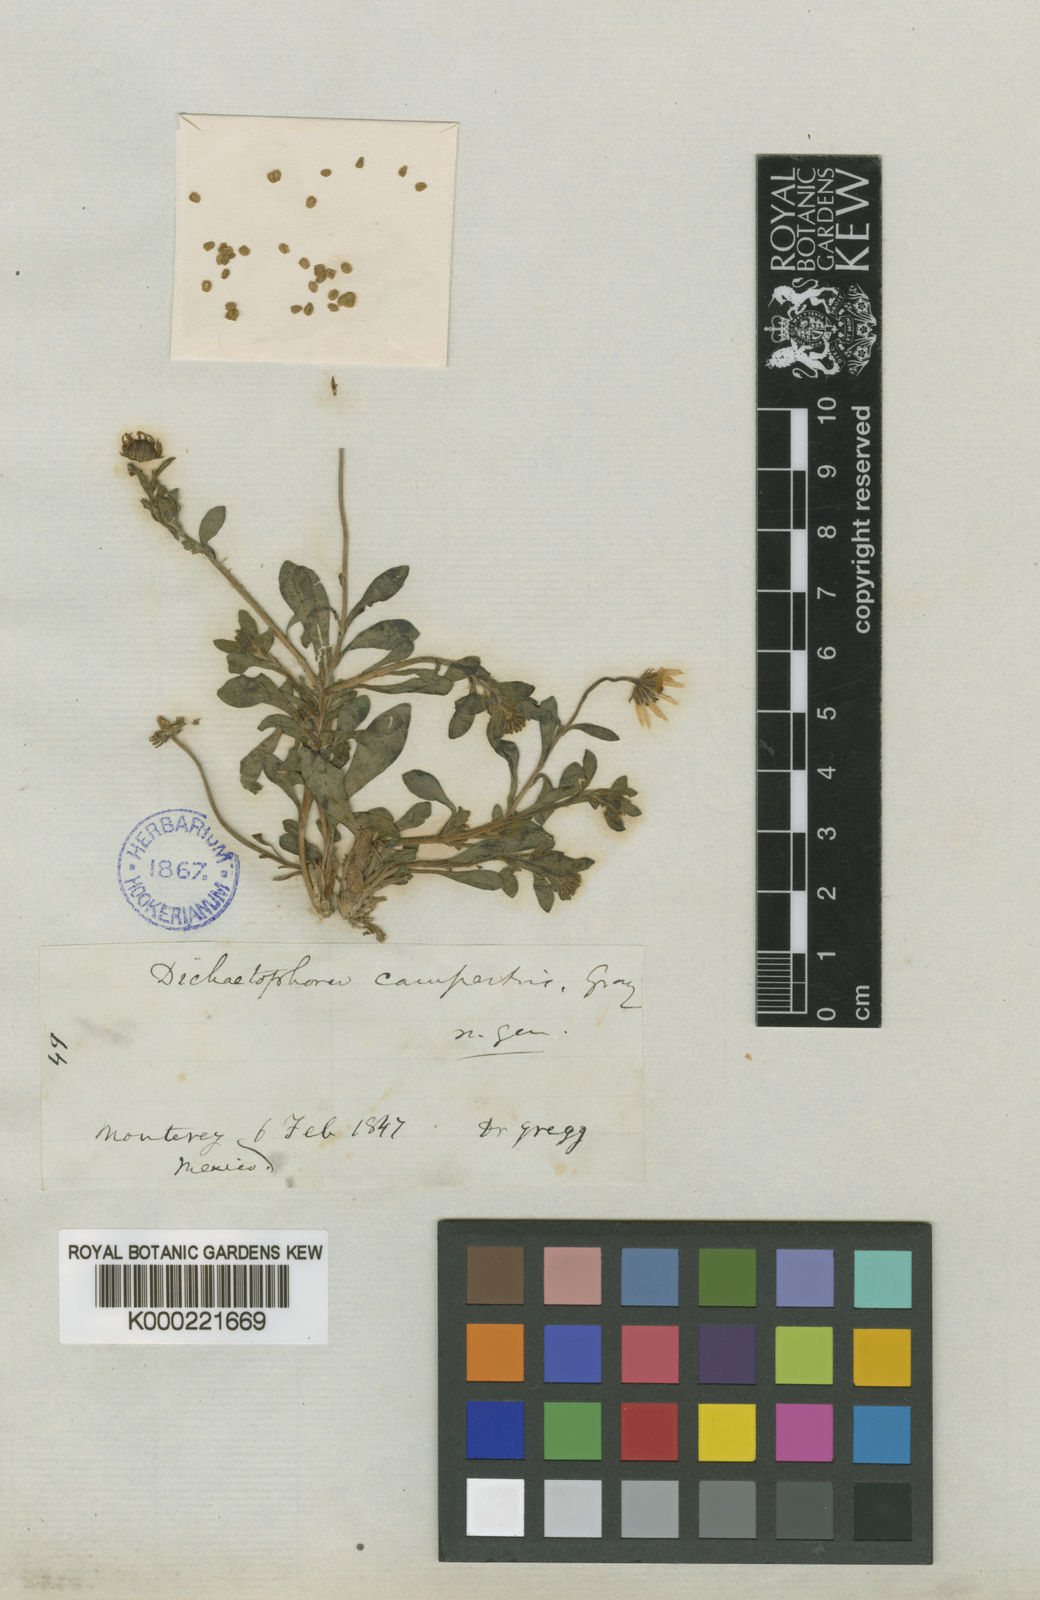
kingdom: Plantae
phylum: Tracheophyta
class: Magnoliopsida
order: Asterales
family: Asteraceae
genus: Dichaetophora
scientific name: Dichaetophora campestris
